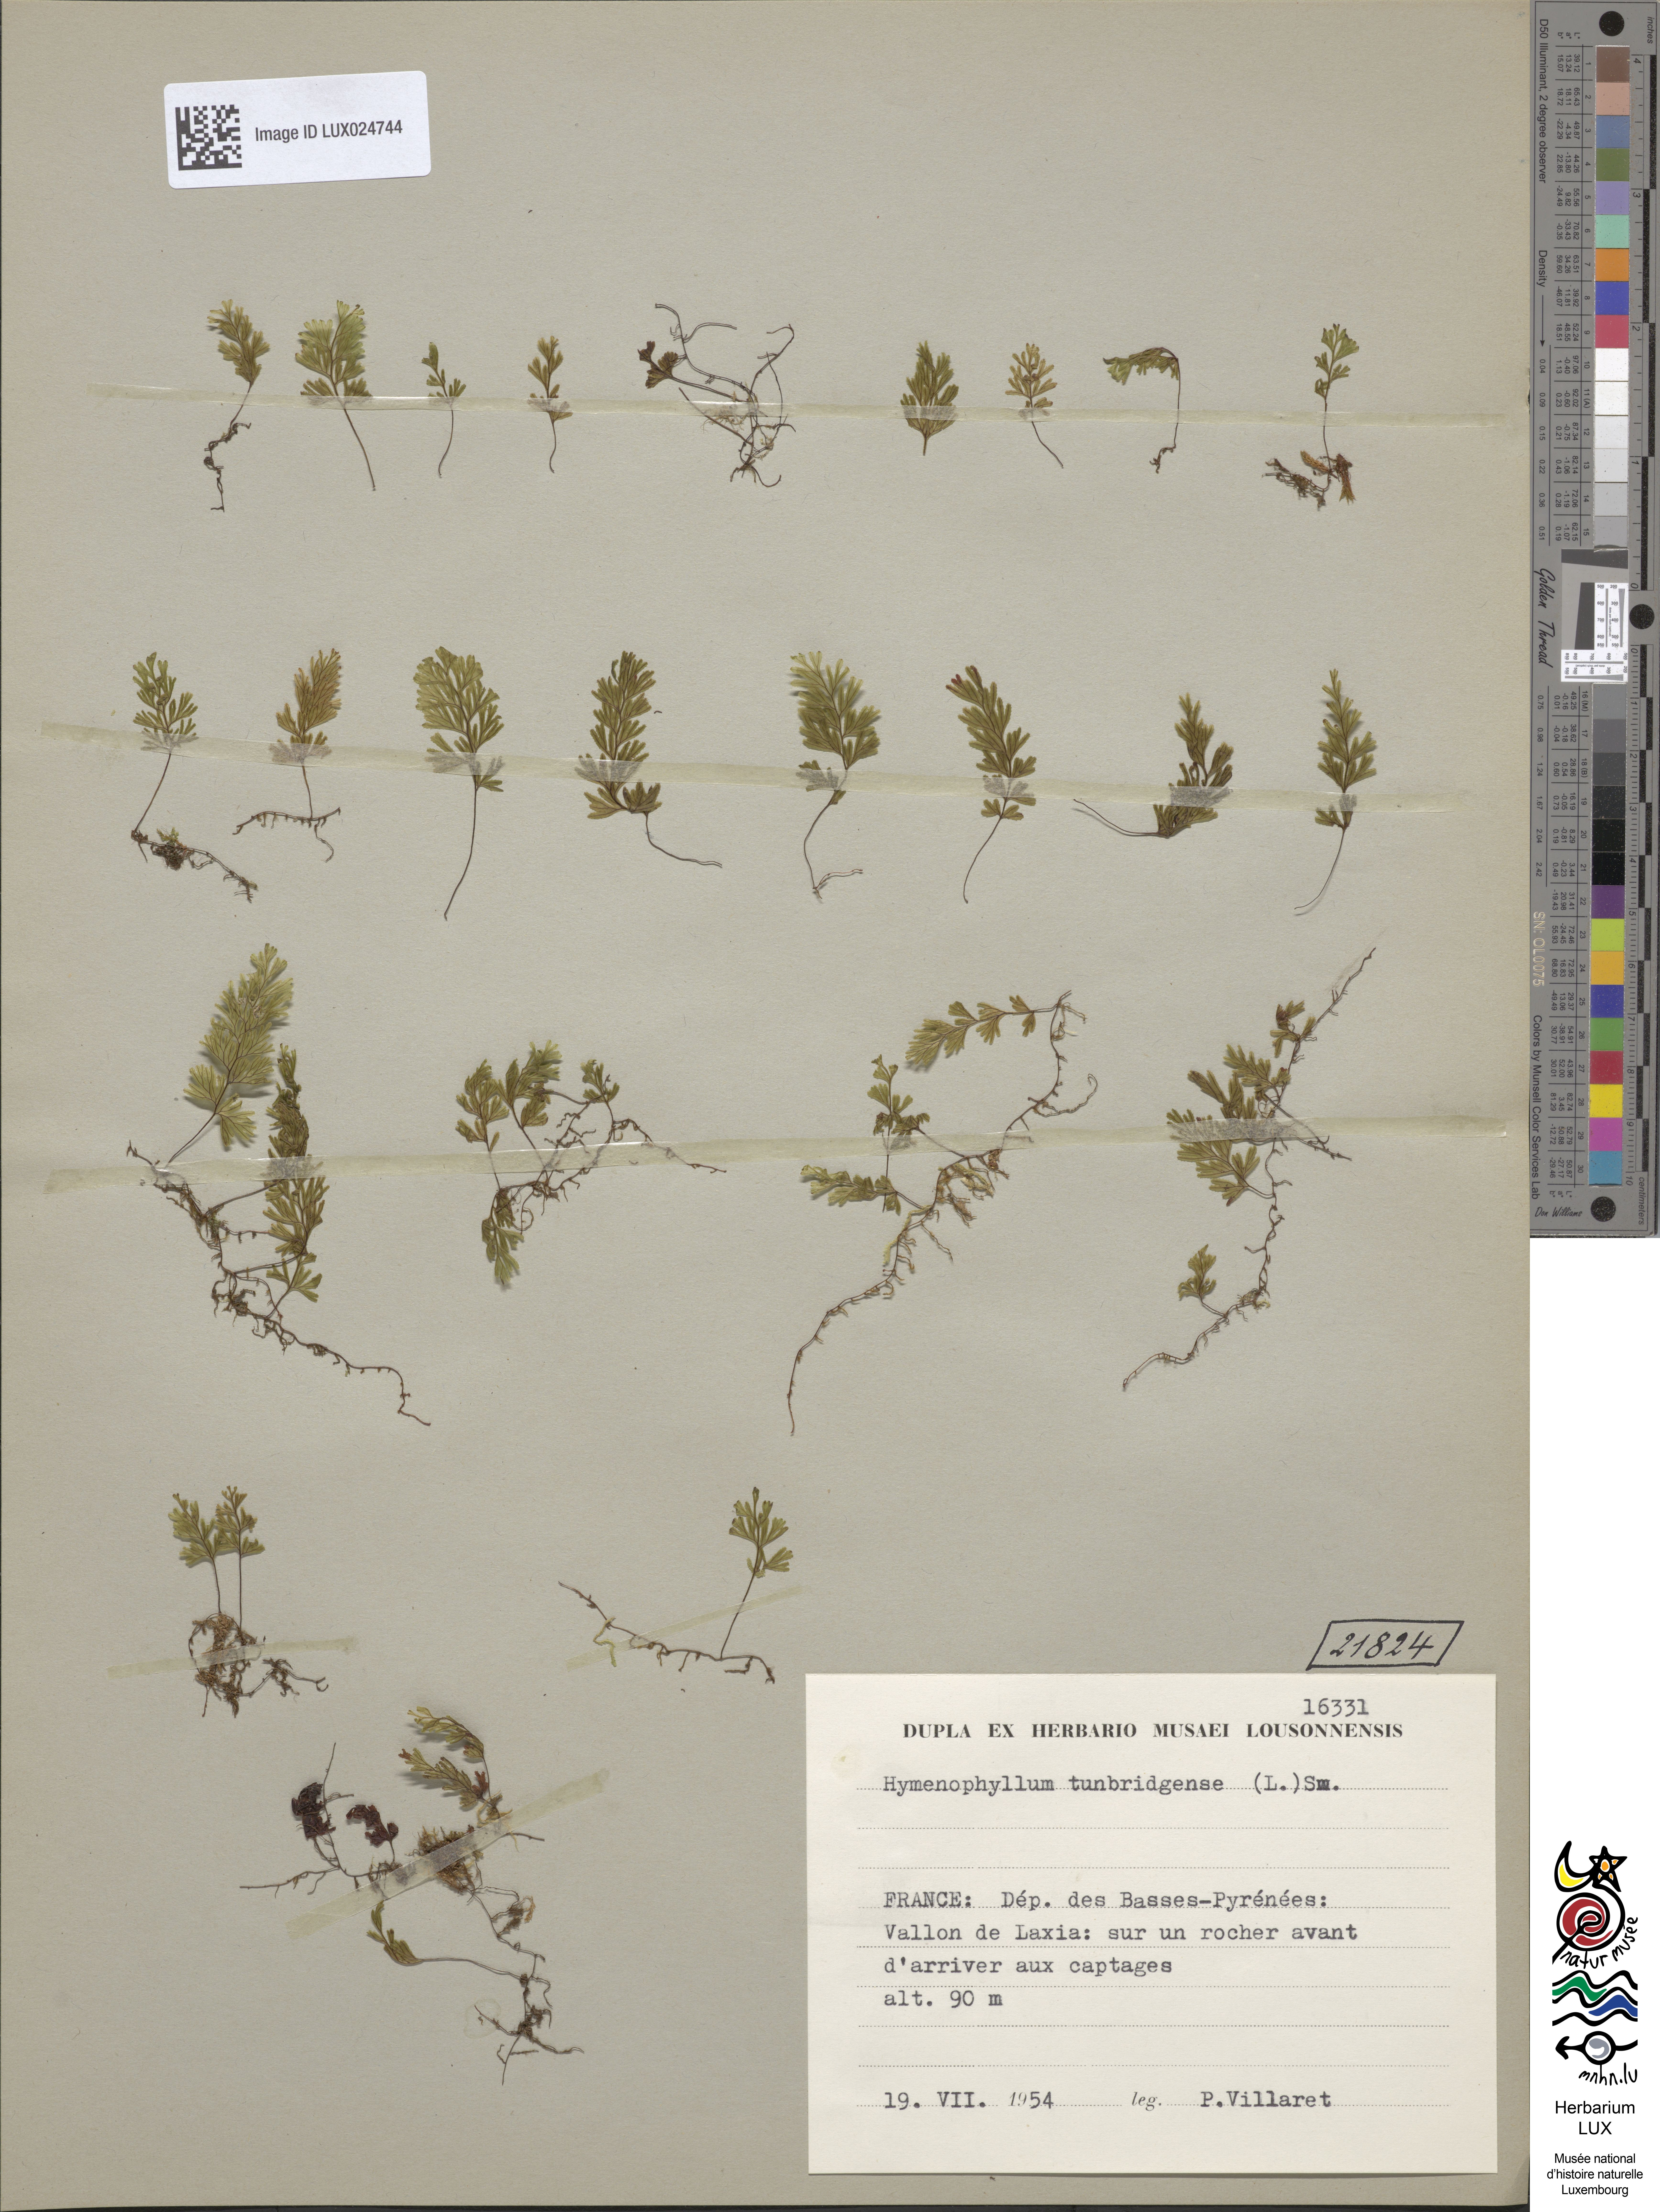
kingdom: Plantae
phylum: Tracheophyta
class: Polypodiopsida
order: Hymenophyllales
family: Hymenophyllaceae
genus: Hymenophyllum
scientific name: Hymenophyllum tunbrigense
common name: Tunbridge filmy fern
